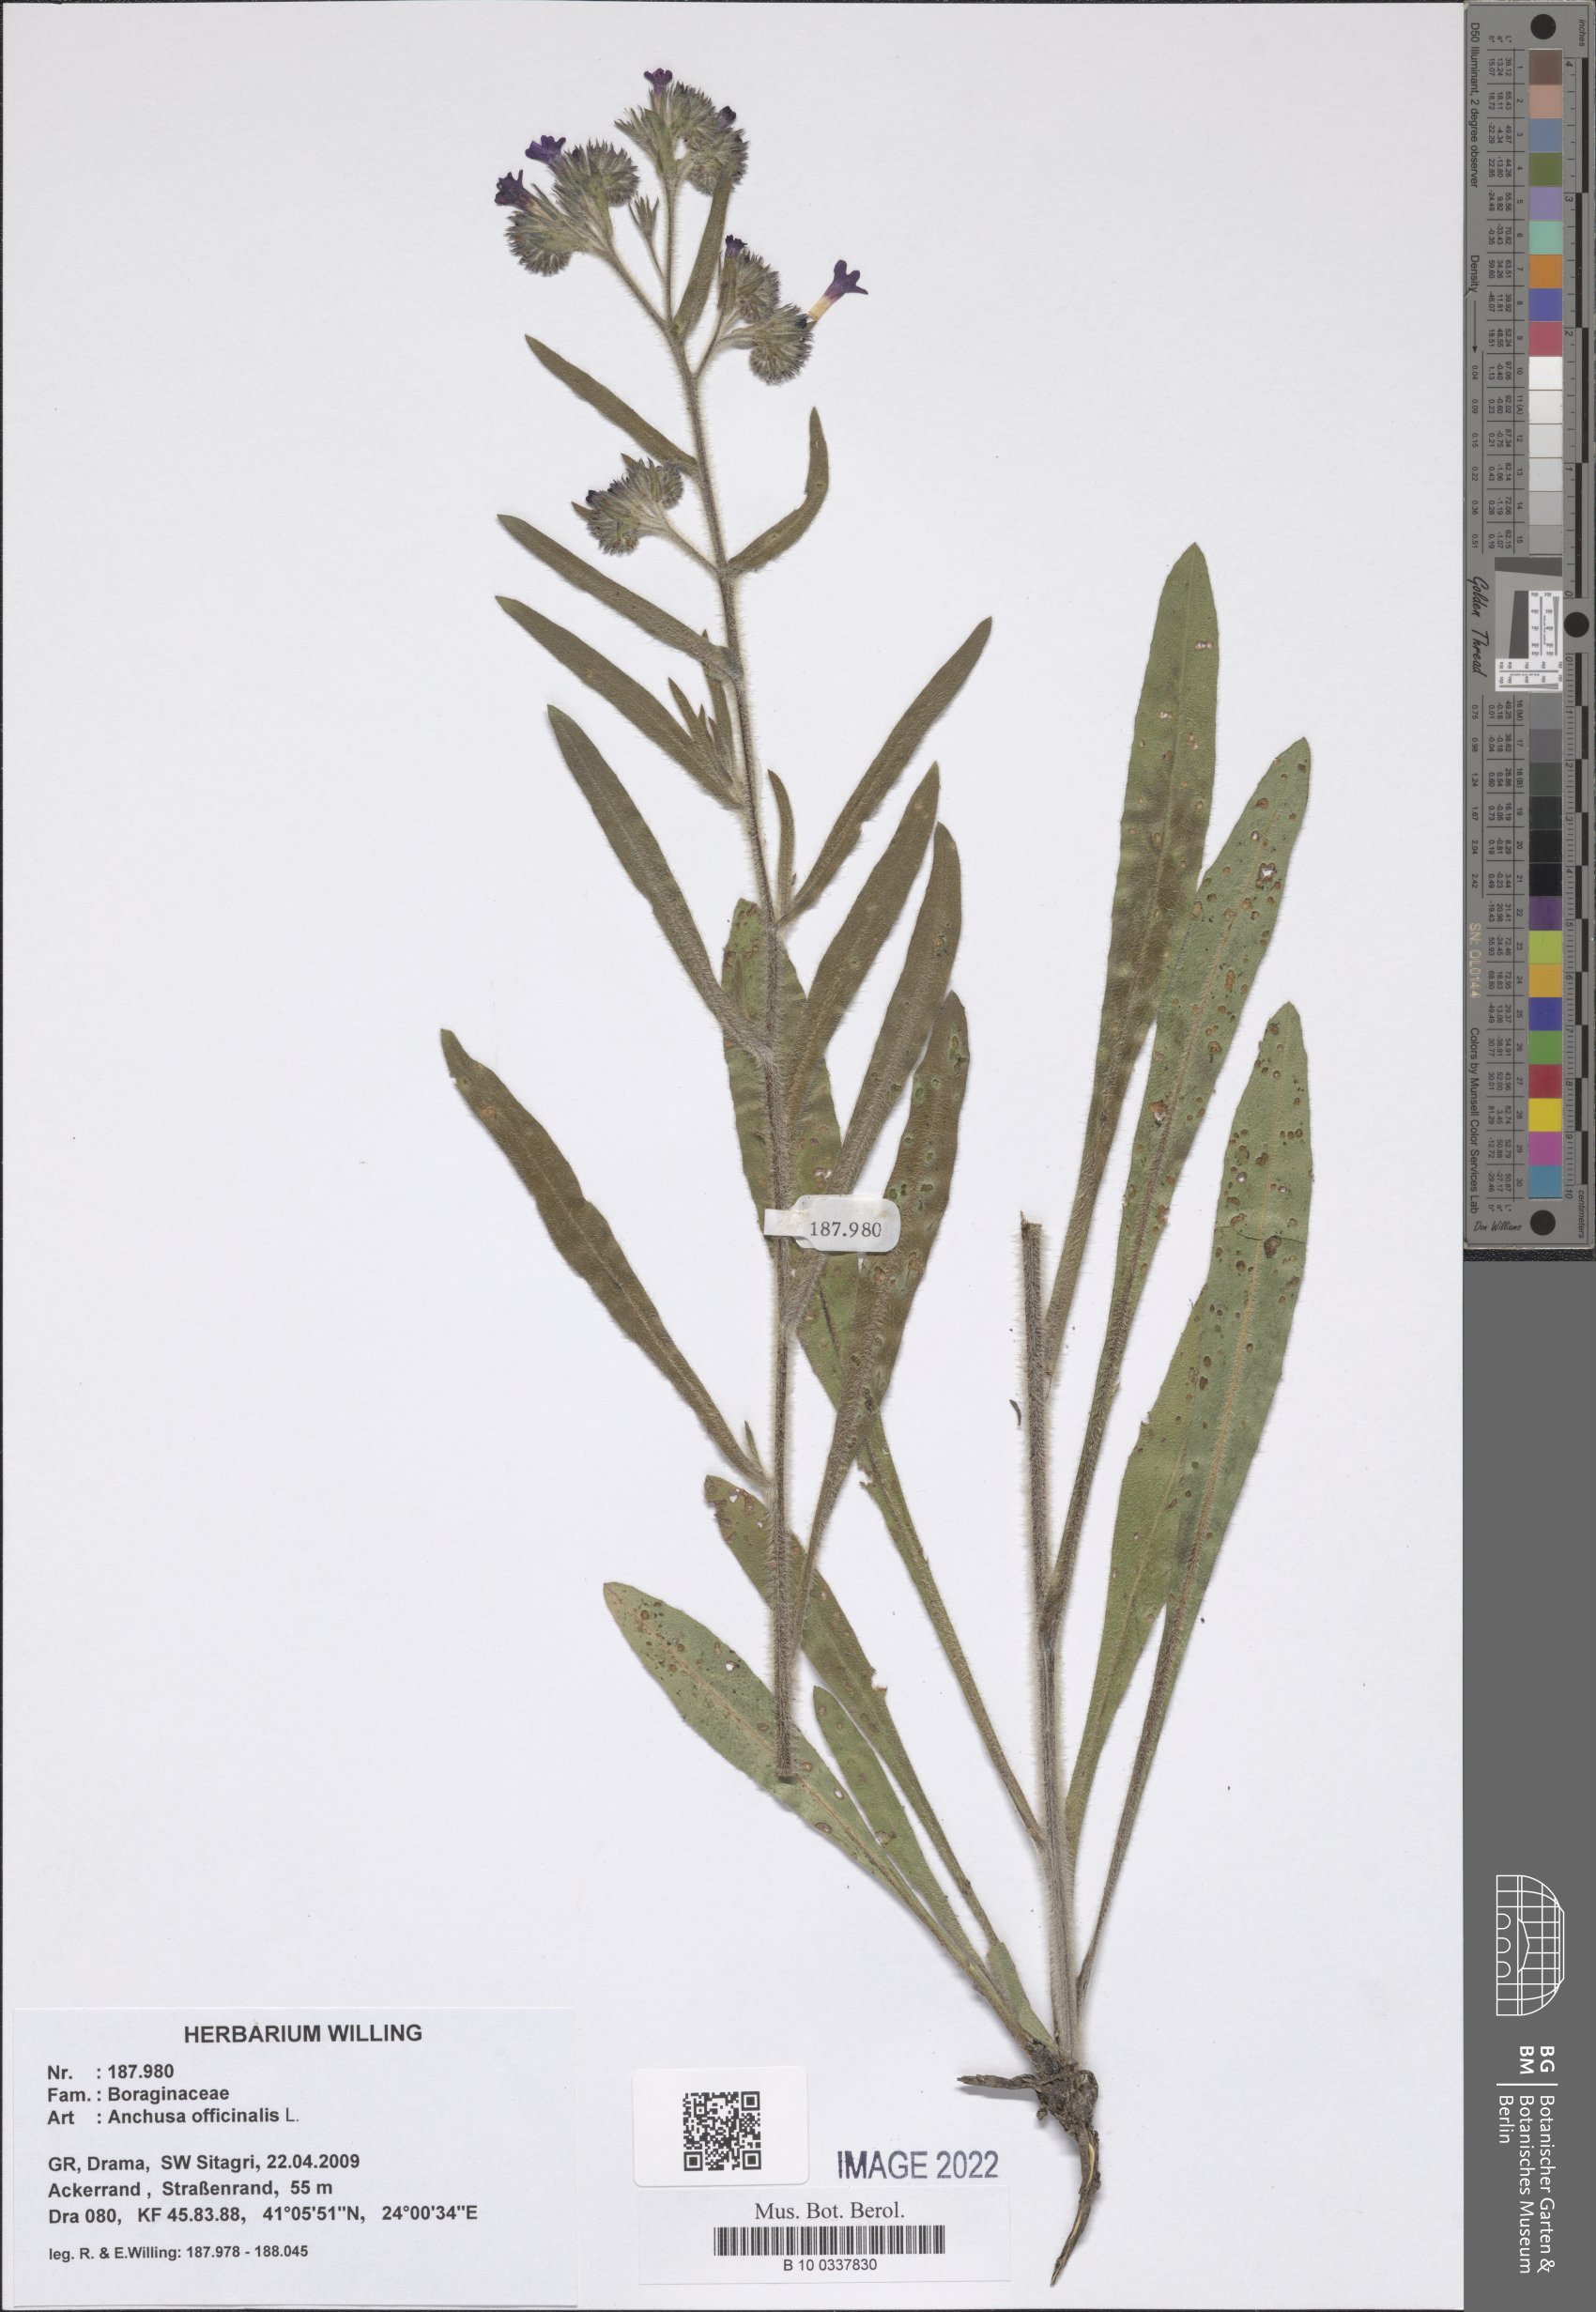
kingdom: Plantae
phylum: Tracheophyta
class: Magnoliopsida
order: Boraginales
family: Boraginaceae
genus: Anchusa
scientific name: Anchusa officinalis
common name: Alkanet
